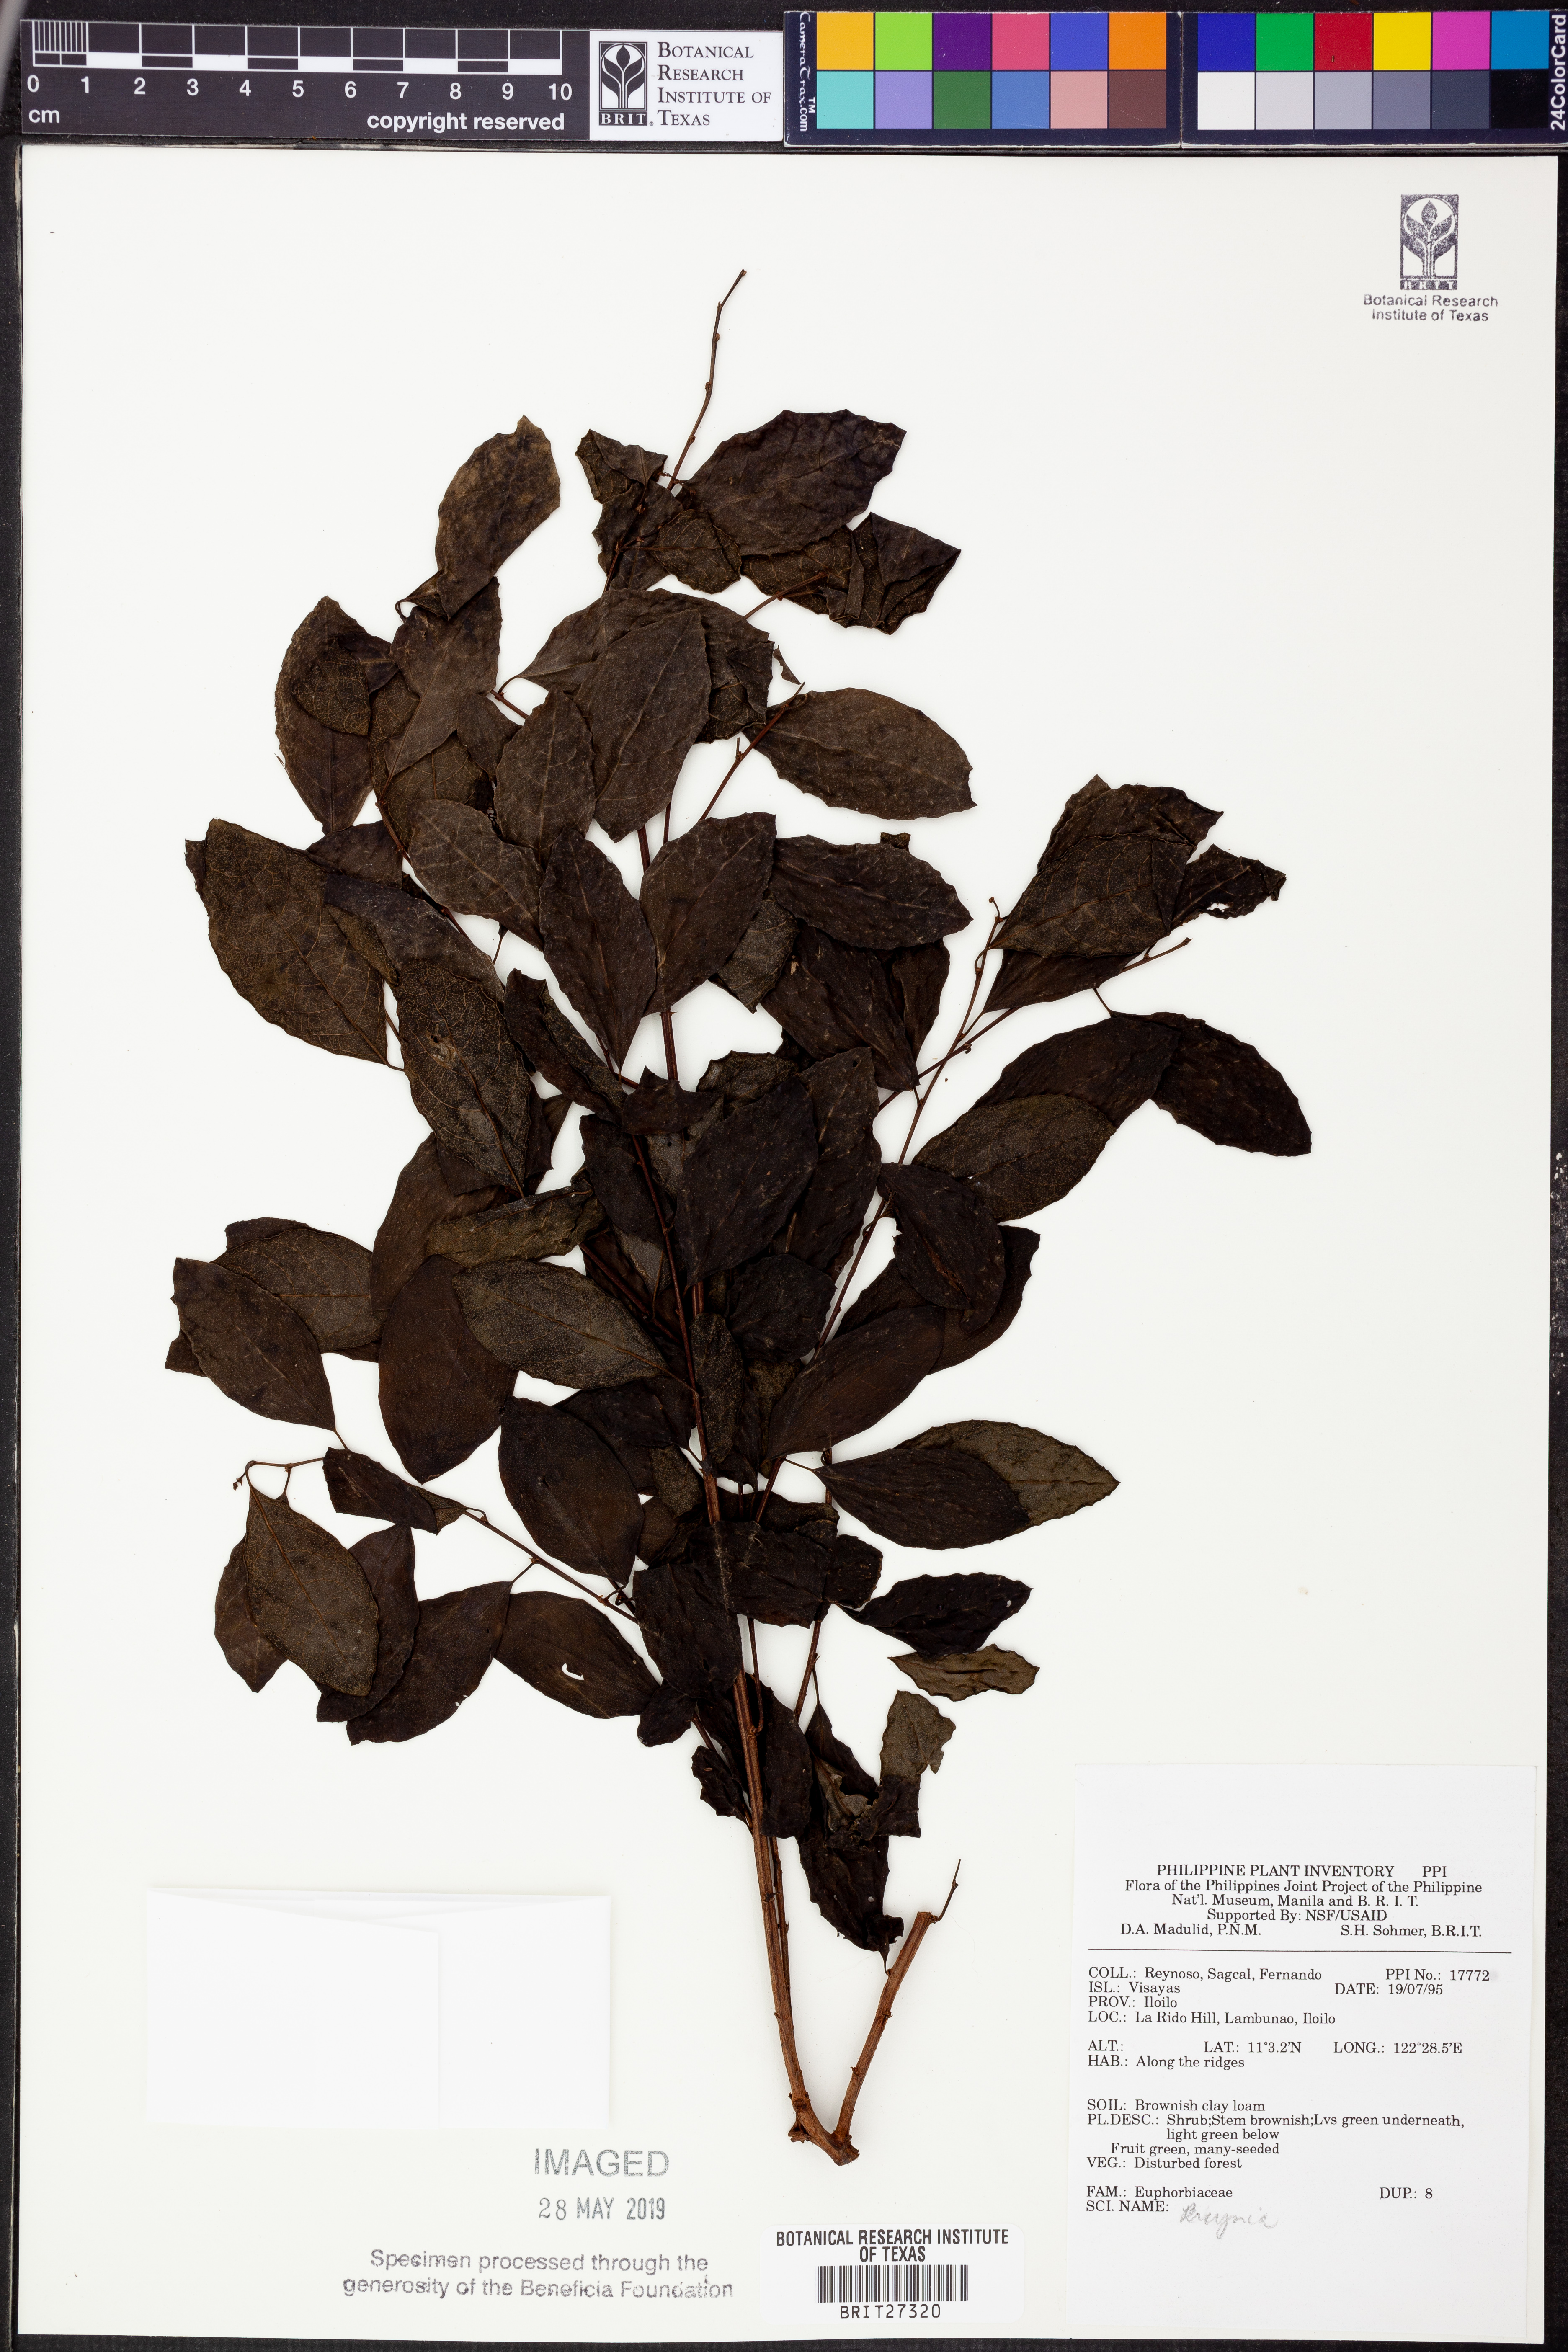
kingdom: Plantae
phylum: Tracheophyta
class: Magnoliopsida
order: Malpighiales
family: Phyllanthaceae
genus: Breynia
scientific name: Breynia
